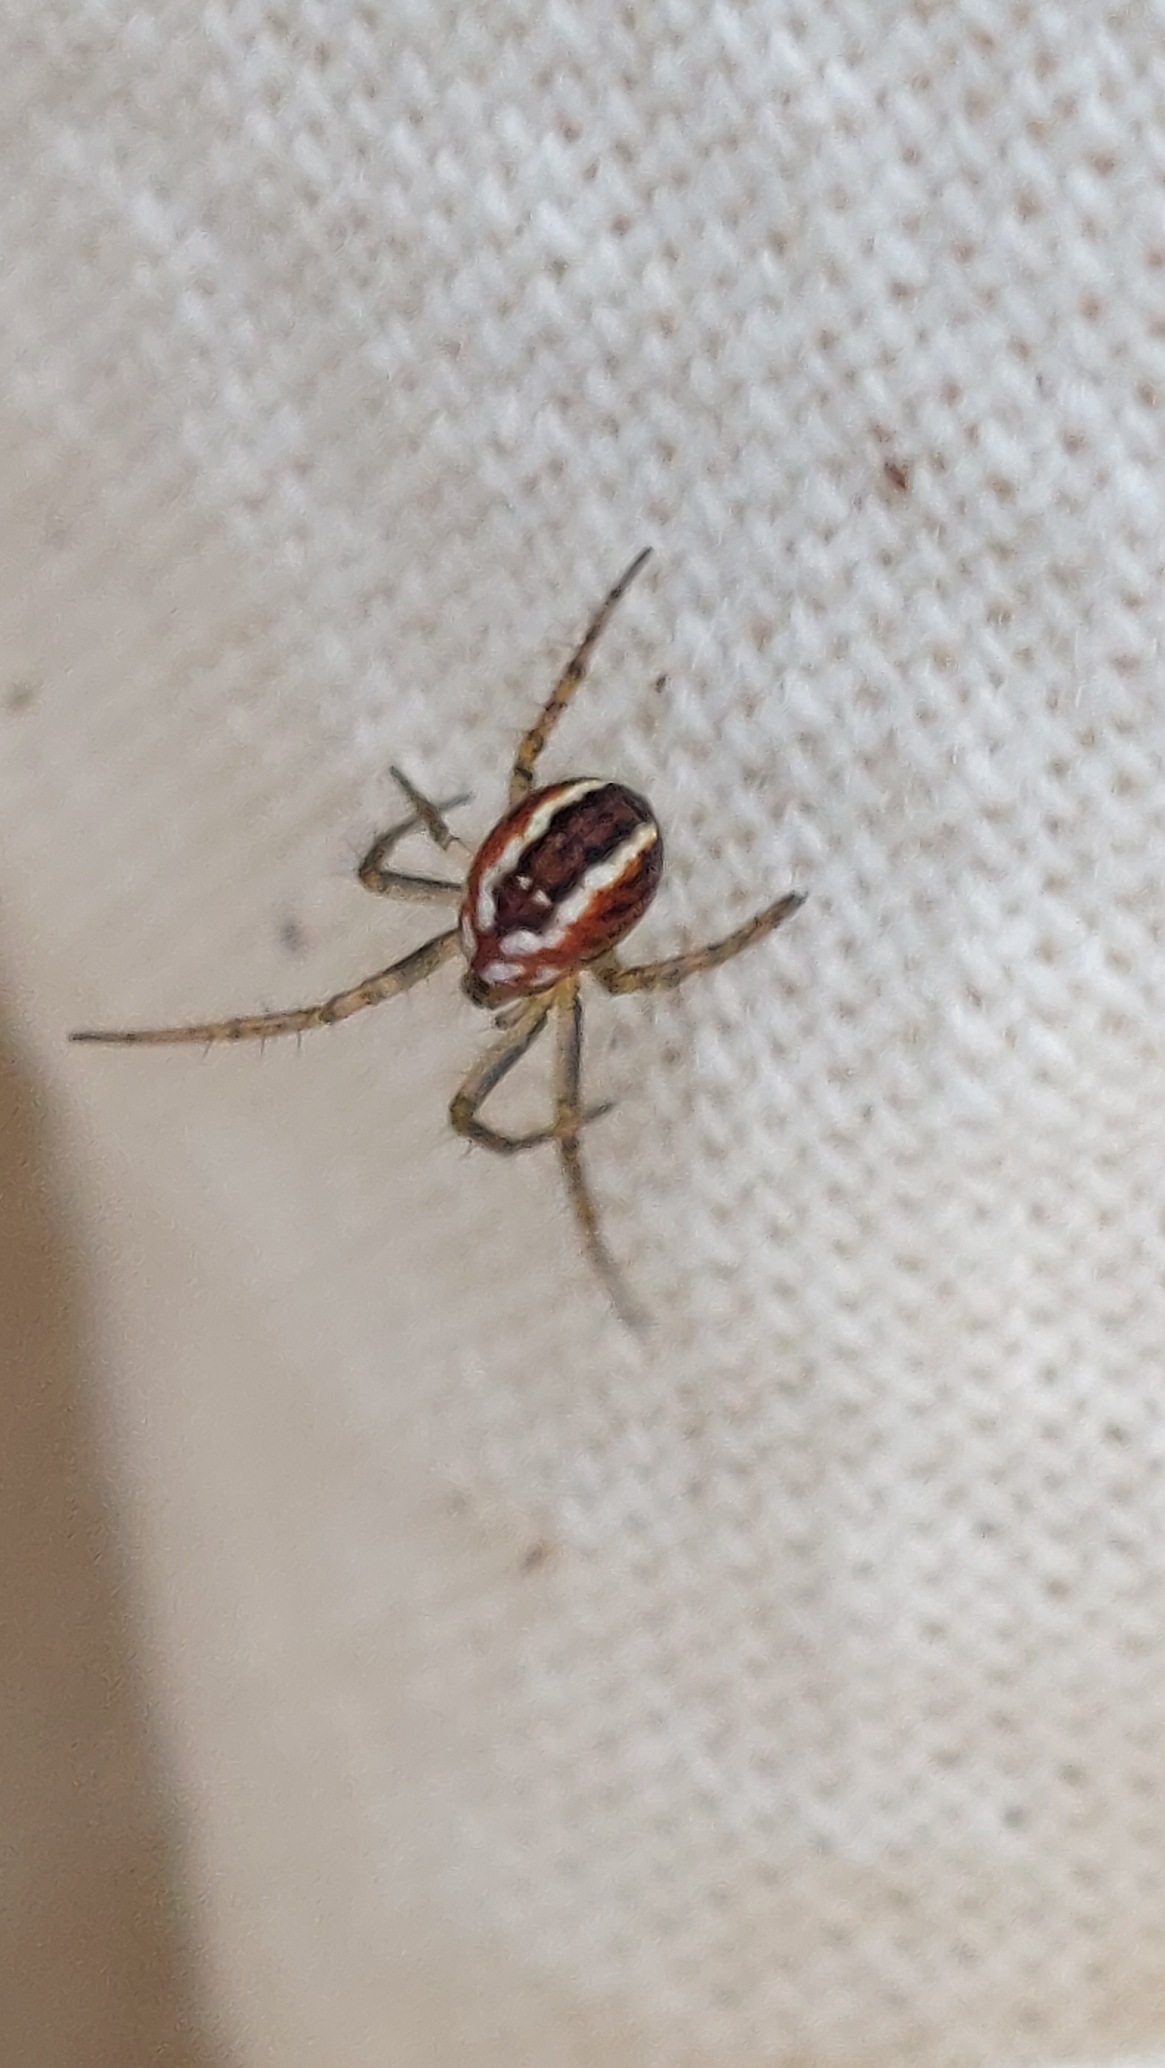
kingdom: Animalia
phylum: Arthropoda
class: Arachnida
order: Araneae
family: Araneidae
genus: Mangora
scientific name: Mangora acalypha
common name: Sortstribet hedehjulspinder
